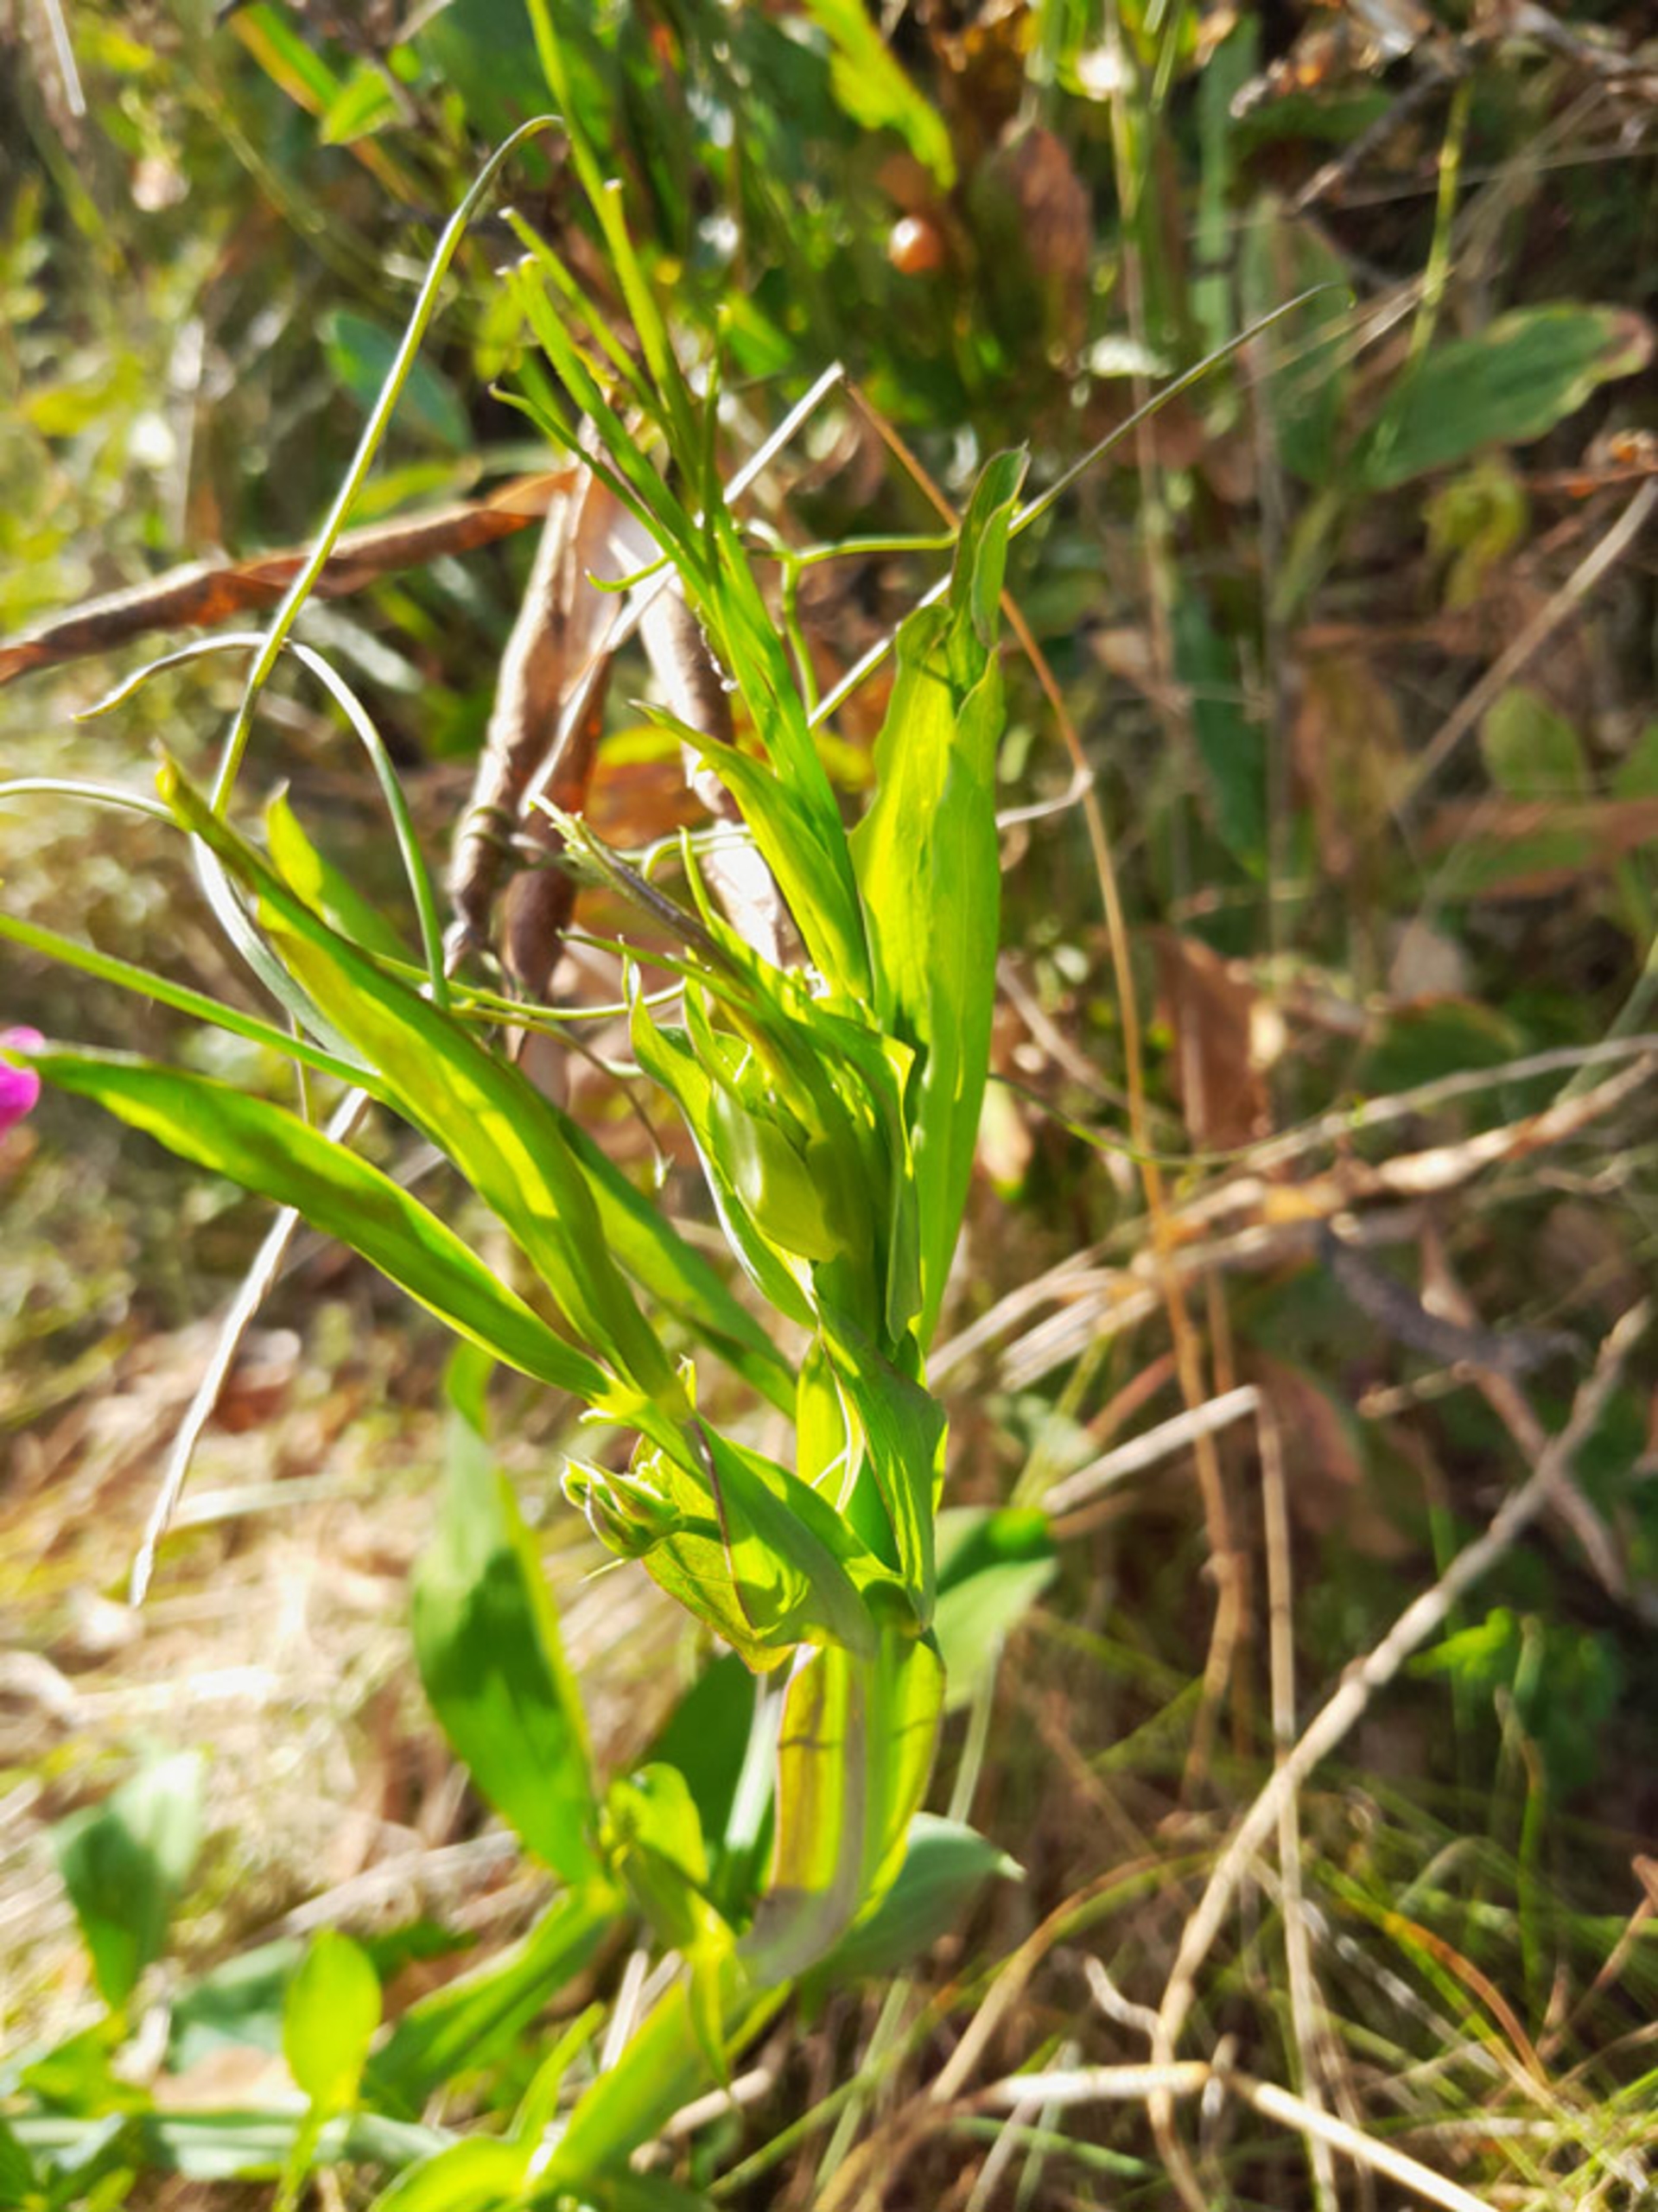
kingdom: Plantae
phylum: Tracheophyta
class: Magnoliopsida
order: Fabales
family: Fabaceae
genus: Lathyrus
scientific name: Lathyrus latifolius
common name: Flerårig ærteblomst
